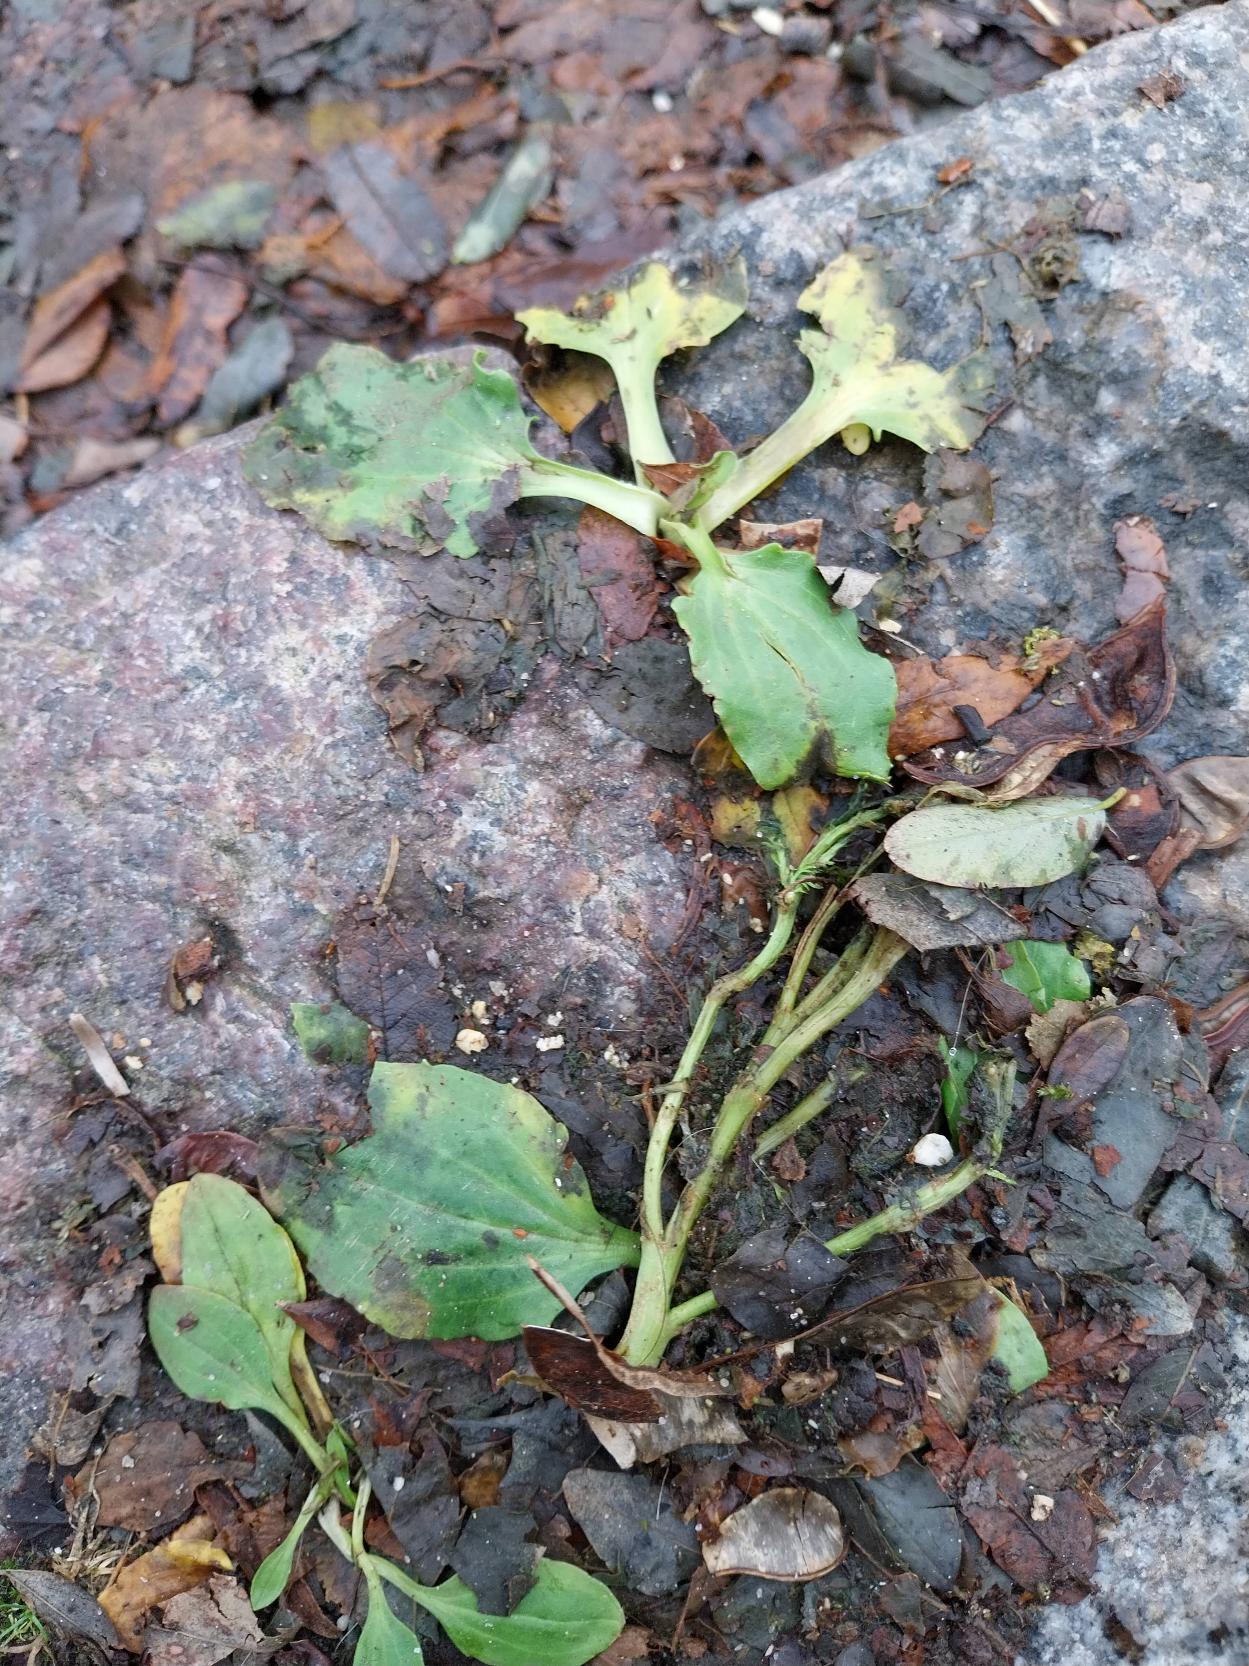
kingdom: Plantae
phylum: Tracheophyta
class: Magnoliopsida
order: Lamiales
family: Plantaginaceae
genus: Plantago
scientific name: Plantago major
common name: Glat vejbred
